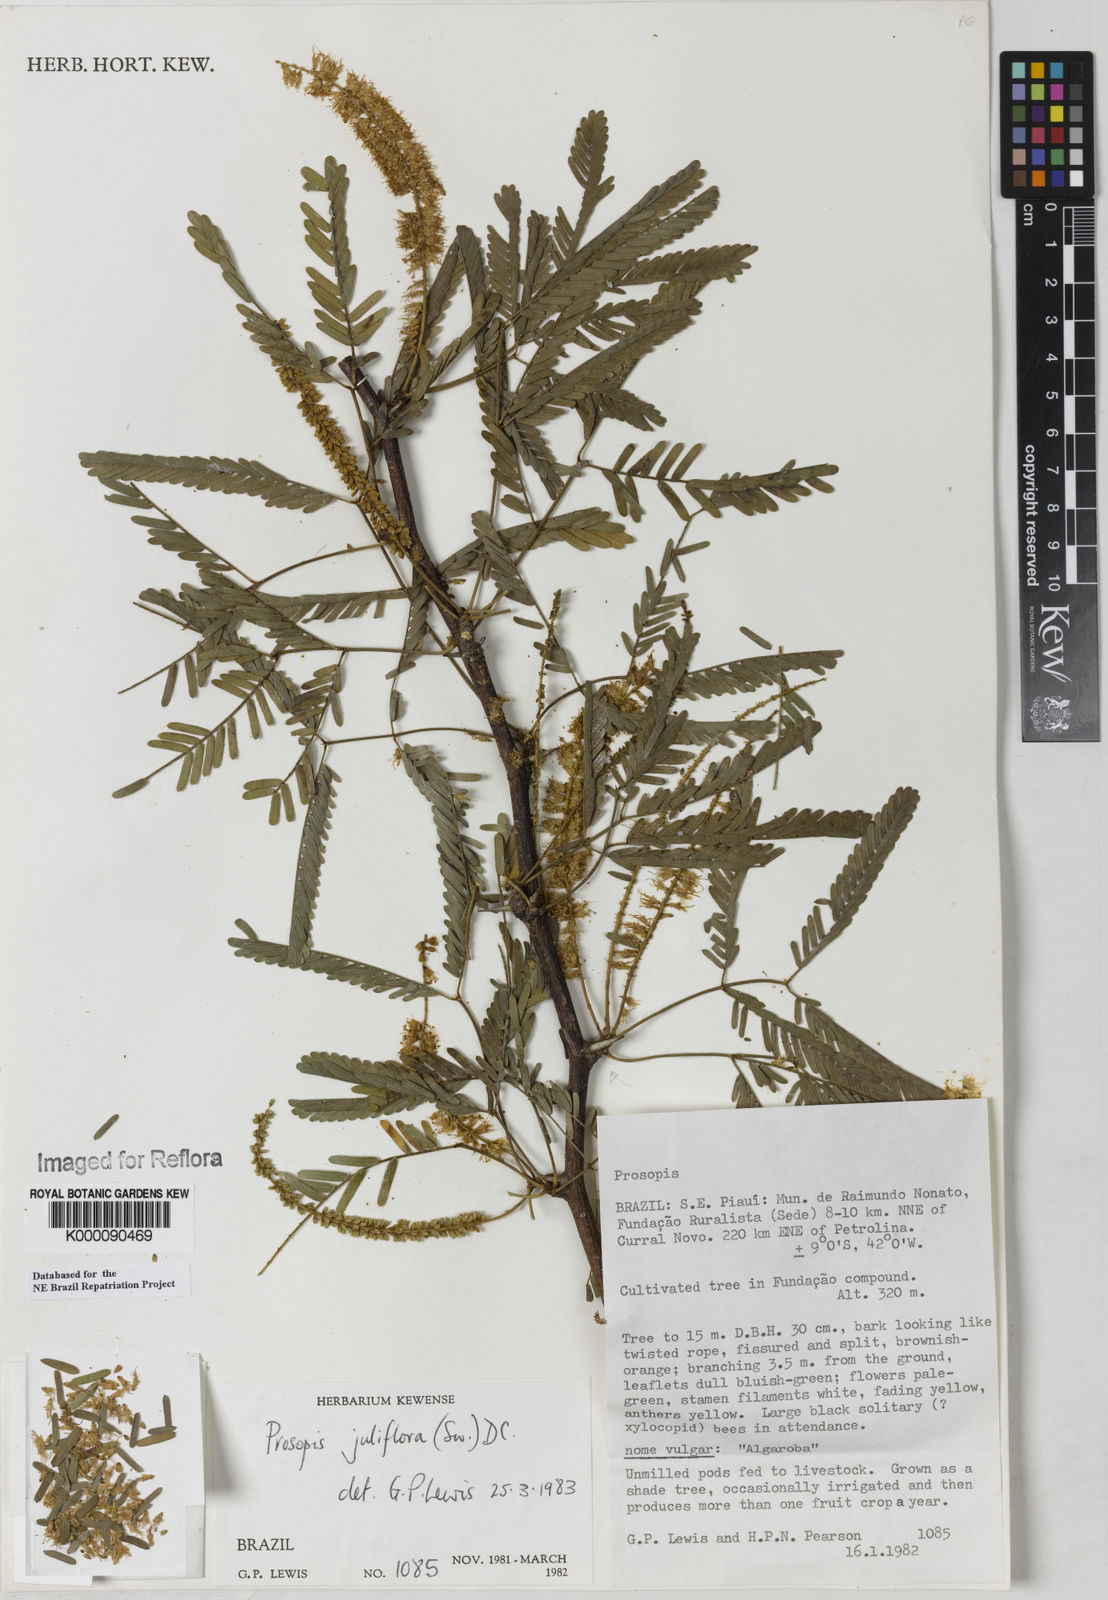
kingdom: Plantae
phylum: Tracheophyta
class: Magnoliopsida
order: Fabales
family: Fabaceae
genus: Prosopis
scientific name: Prosopis juliflora
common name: Mesquite
